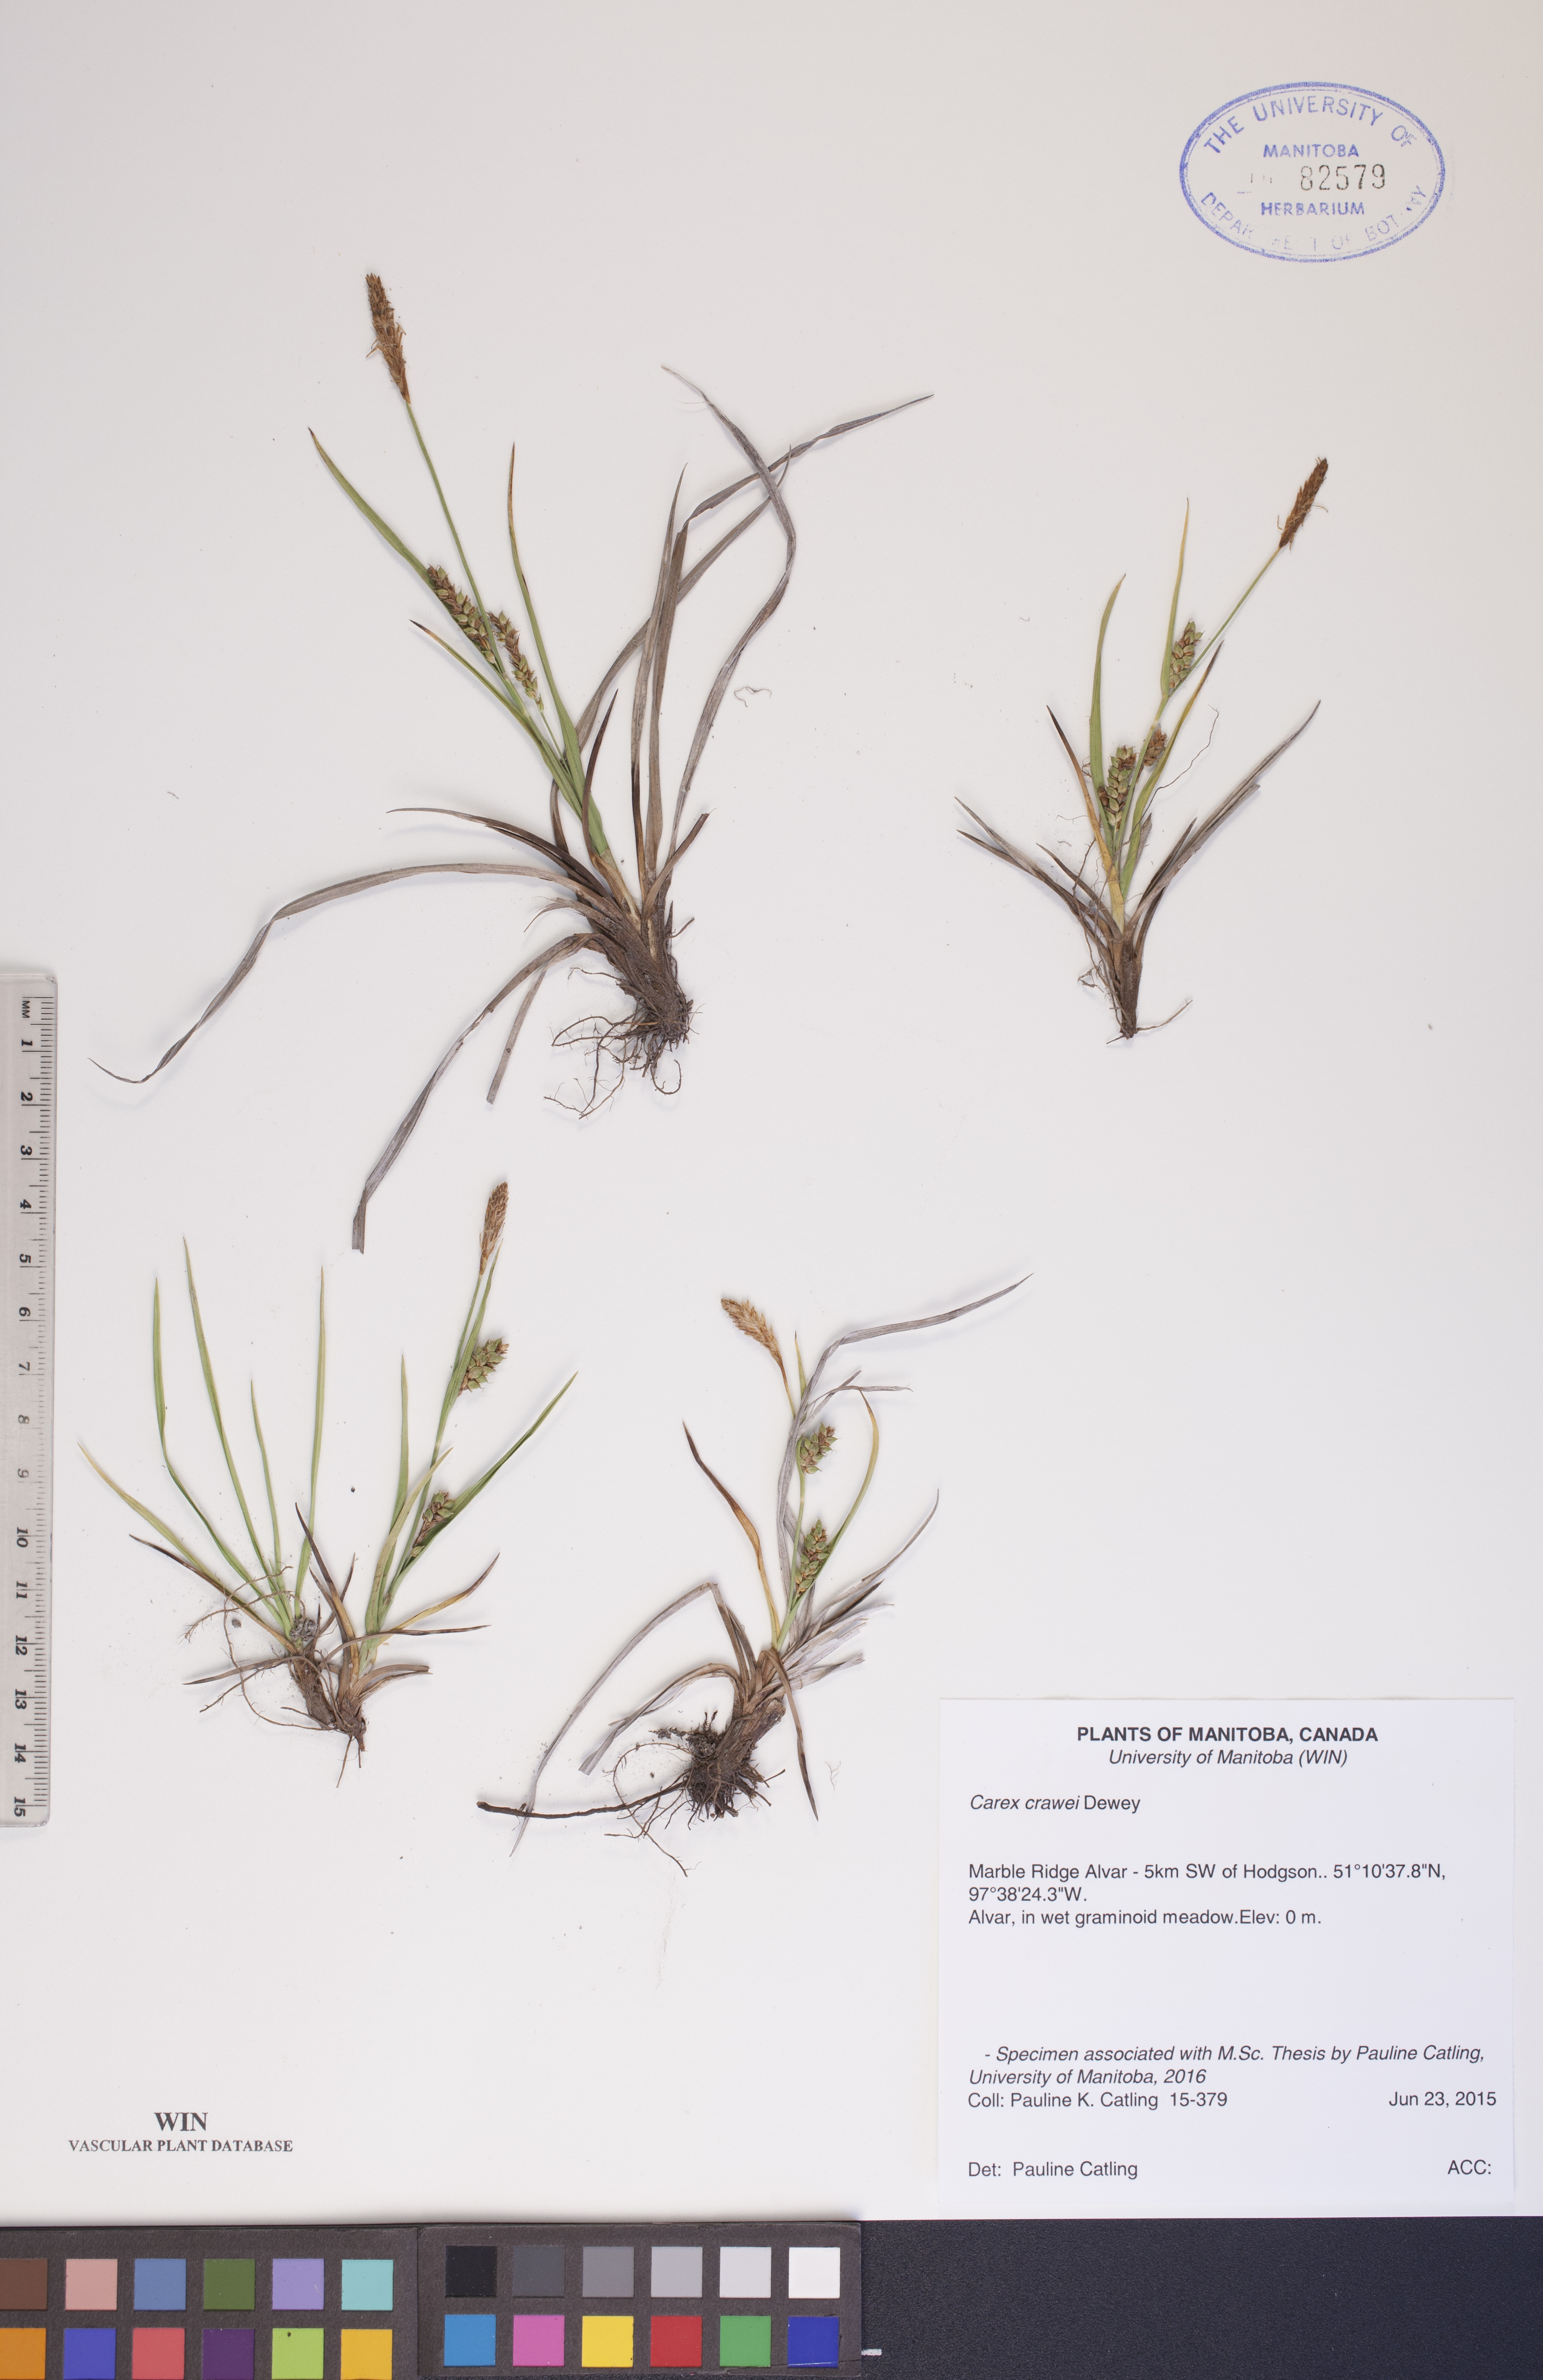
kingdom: Plantae
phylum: Tracheophyta
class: Liliopsida
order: Poales
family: Cyperaceae
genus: Carex
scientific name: Carex crawei
